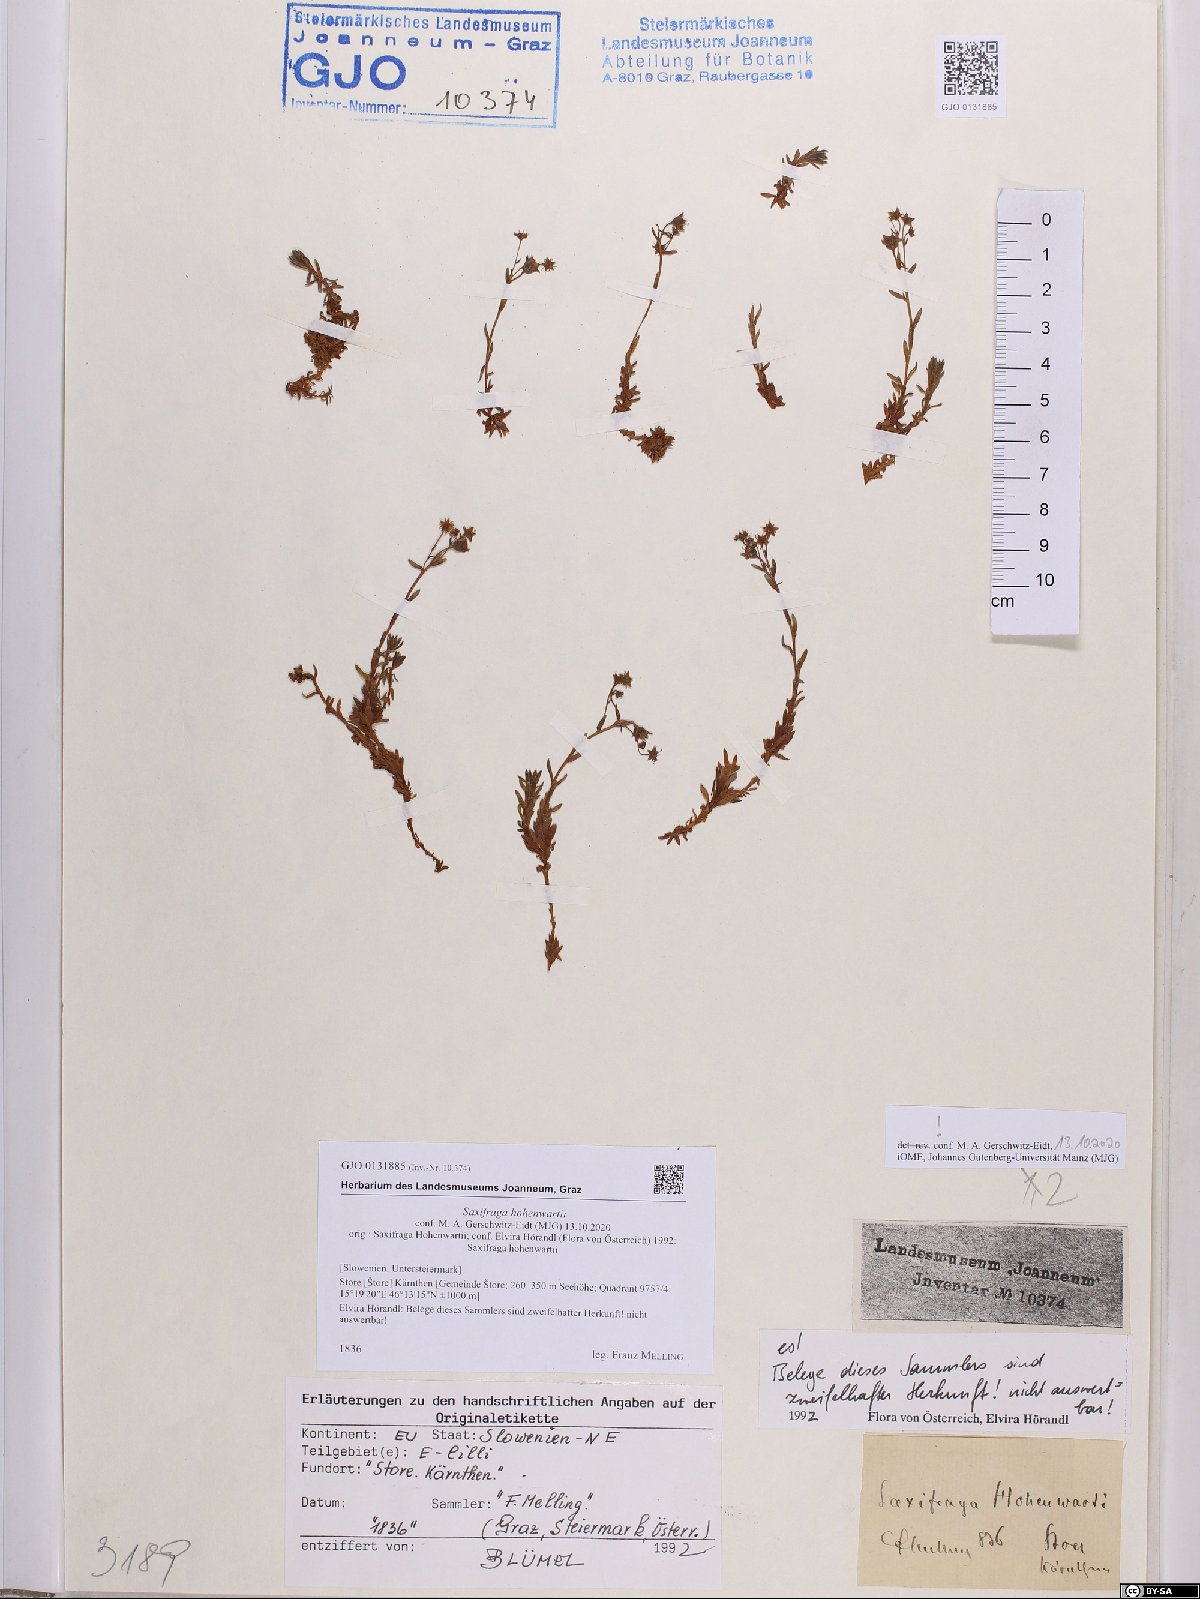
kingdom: Plantae
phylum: Tracheophyta
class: Magnoliopsida
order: Saxifragales
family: Saxifragaceae
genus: Saxifraga
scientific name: Saxifraga hohenwartii
